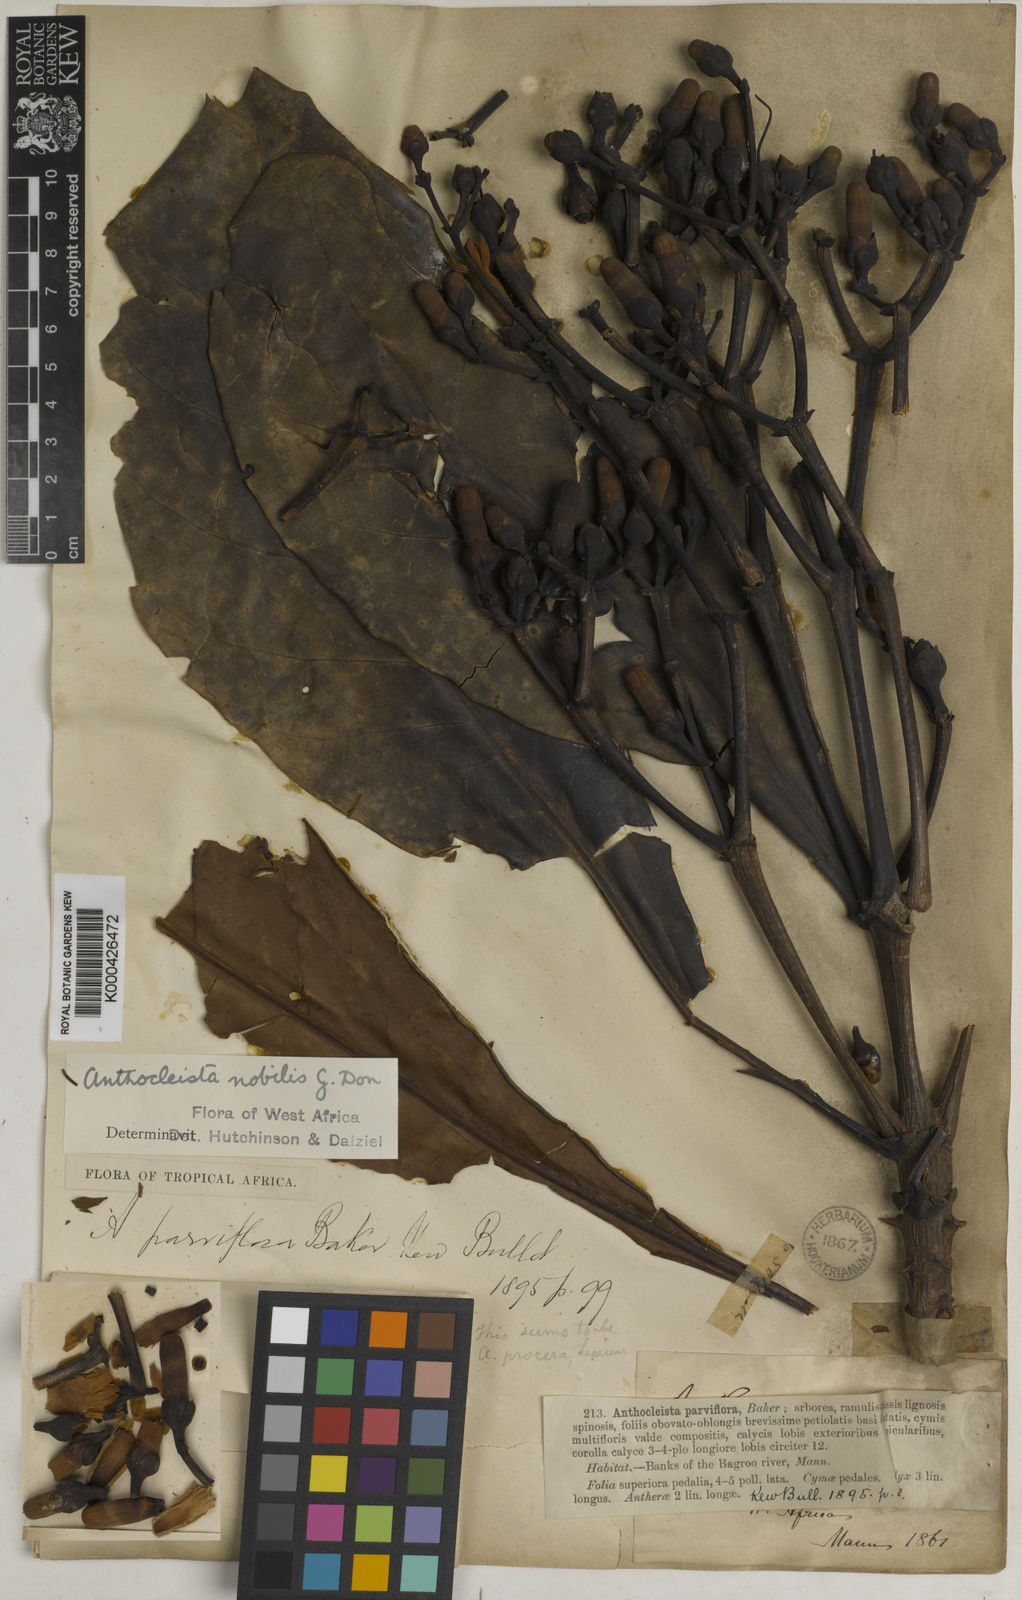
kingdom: Plantae
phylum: Tracheophyta
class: Magnoliopsida
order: Gentianales
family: Gentianaceae
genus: Anthocleista
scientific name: Anthocleista nobilis
